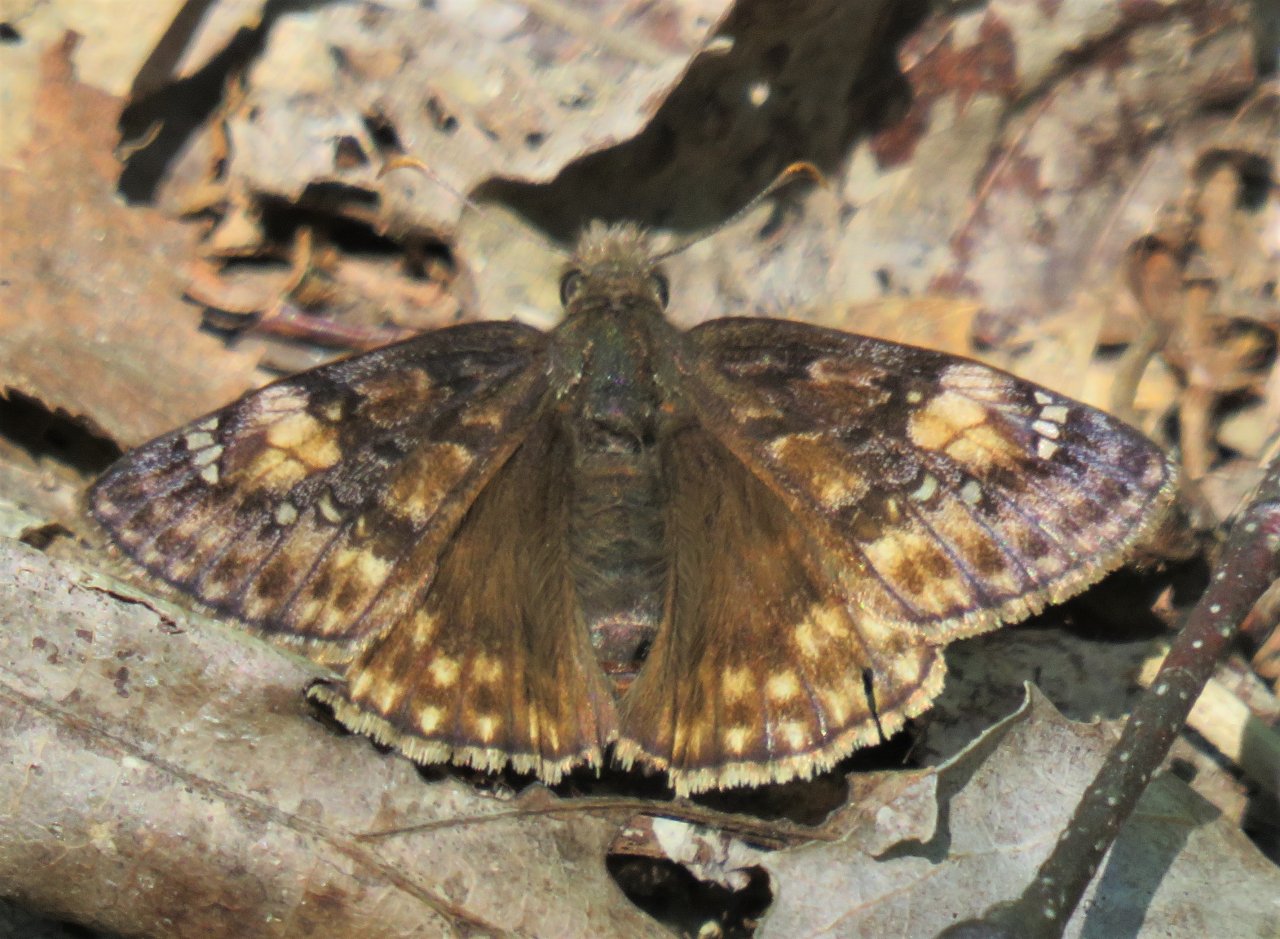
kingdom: Animalia
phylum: Arthropoda
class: Insecta
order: Lepidoptera
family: Hesperiidae
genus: Gesta
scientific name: Gesta
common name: Juvenal's Duskywing
